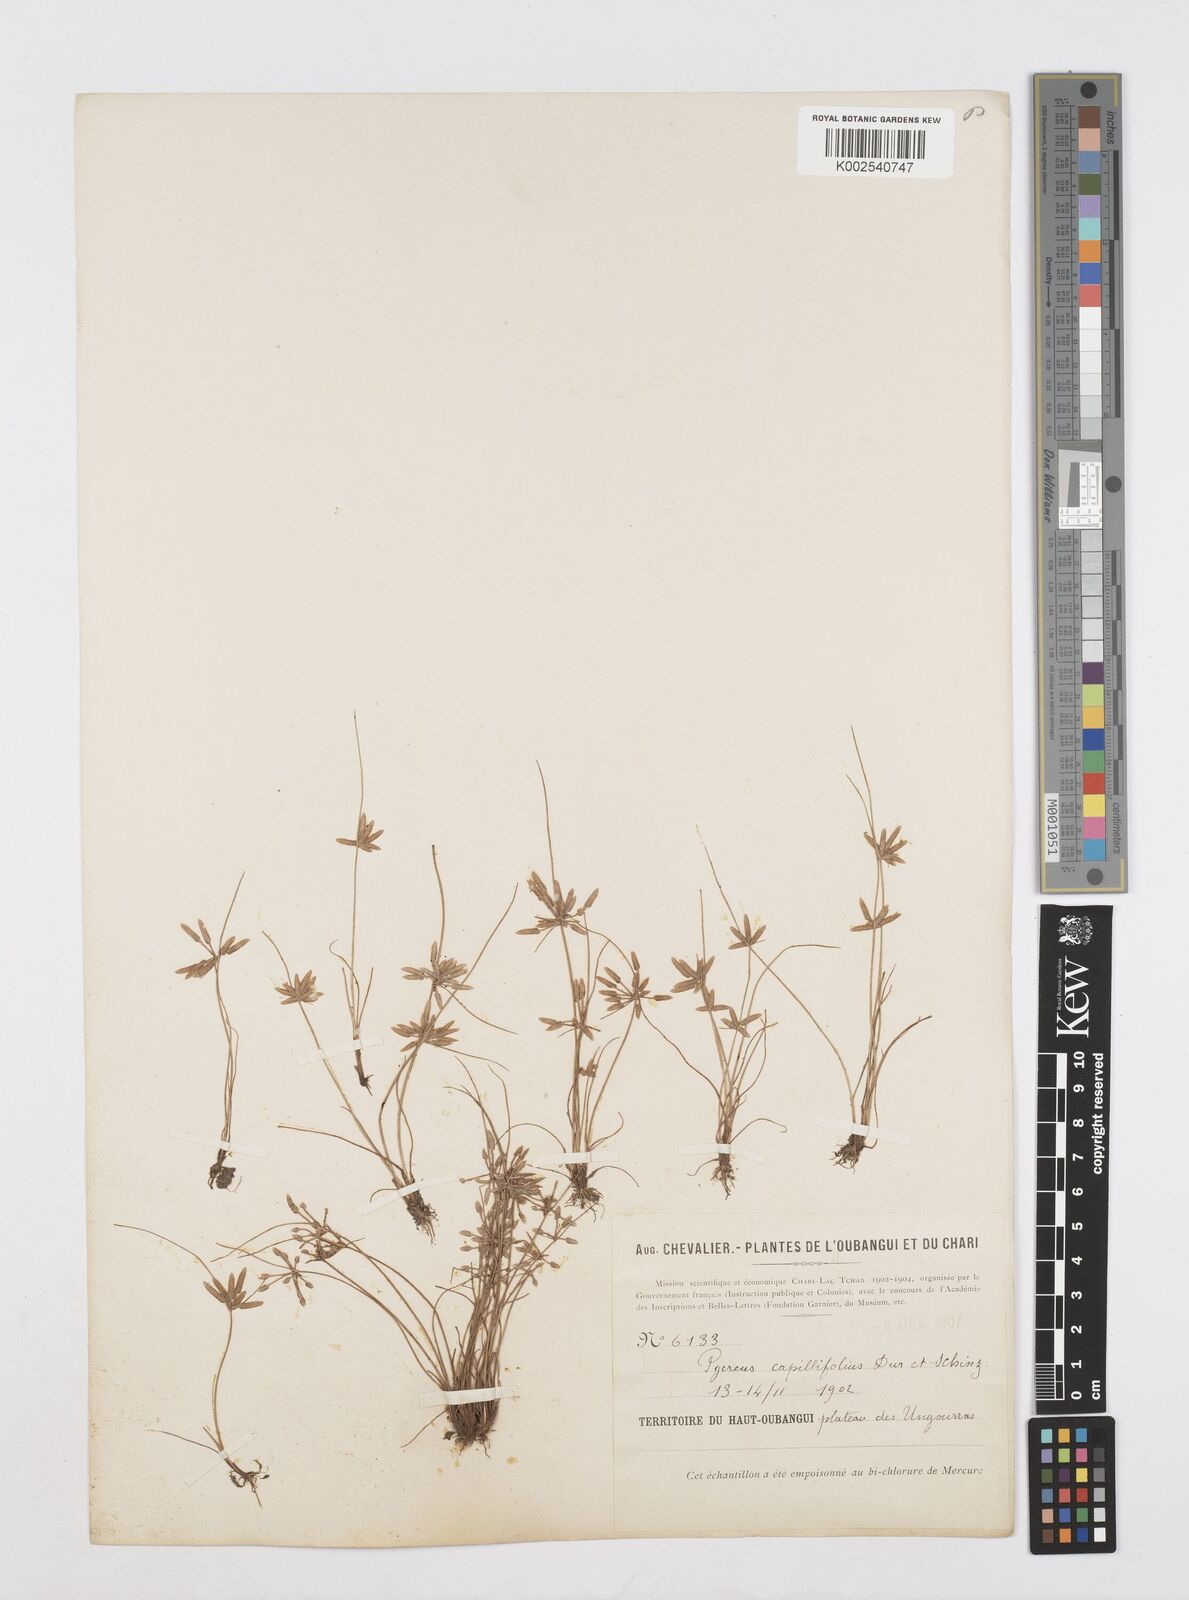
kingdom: Plantae
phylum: Tracheophyta
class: Liliopsida
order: Poales
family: Cyperaceae
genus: Cyperus
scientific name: Cyperus capillifolius
